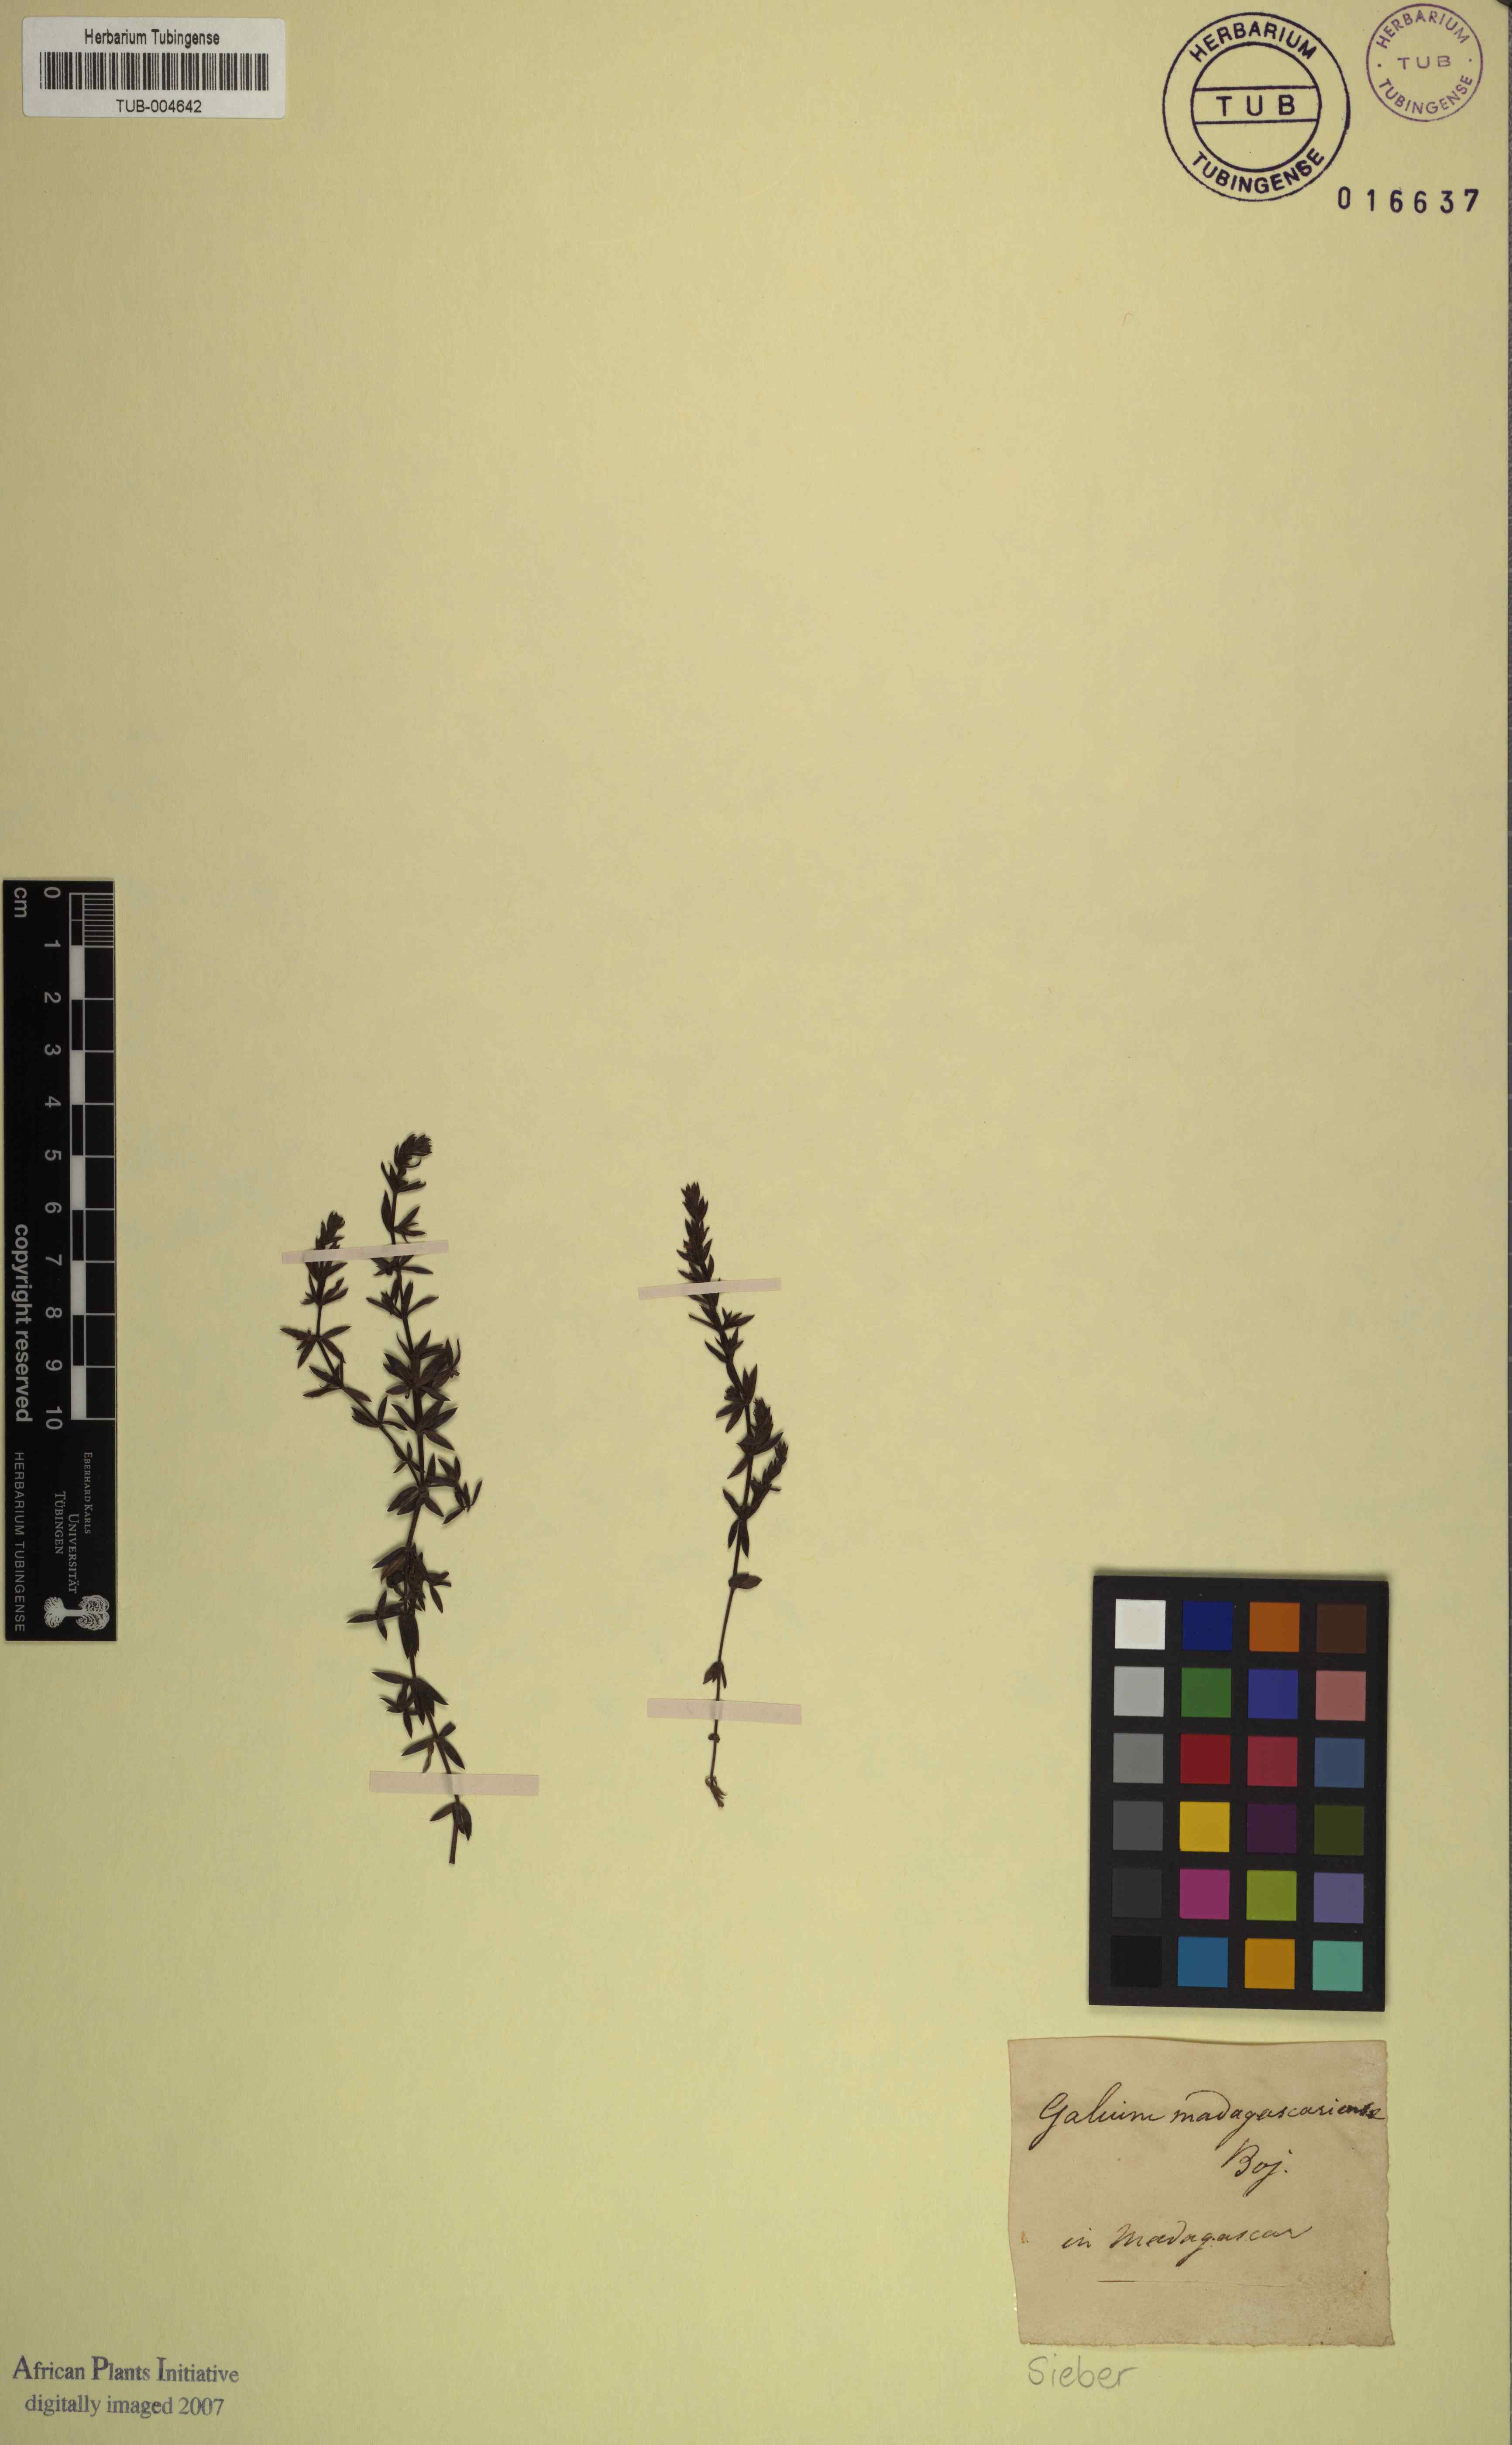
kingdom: Plantae
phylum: Tracheophyta
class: Magnoliopsida
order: Gentianales
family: Rubiaceae
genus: Galium
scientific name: Galium
